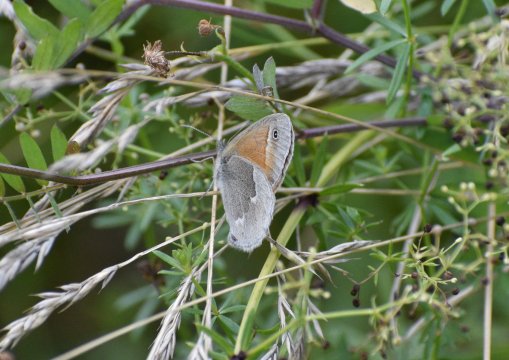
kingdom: Animalia
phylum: Arthropoda
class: Insecta
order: Lepidoptera
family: Nymphalidae
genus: Coenonympha
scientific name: Coenonympha tullia
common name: Large Heath
